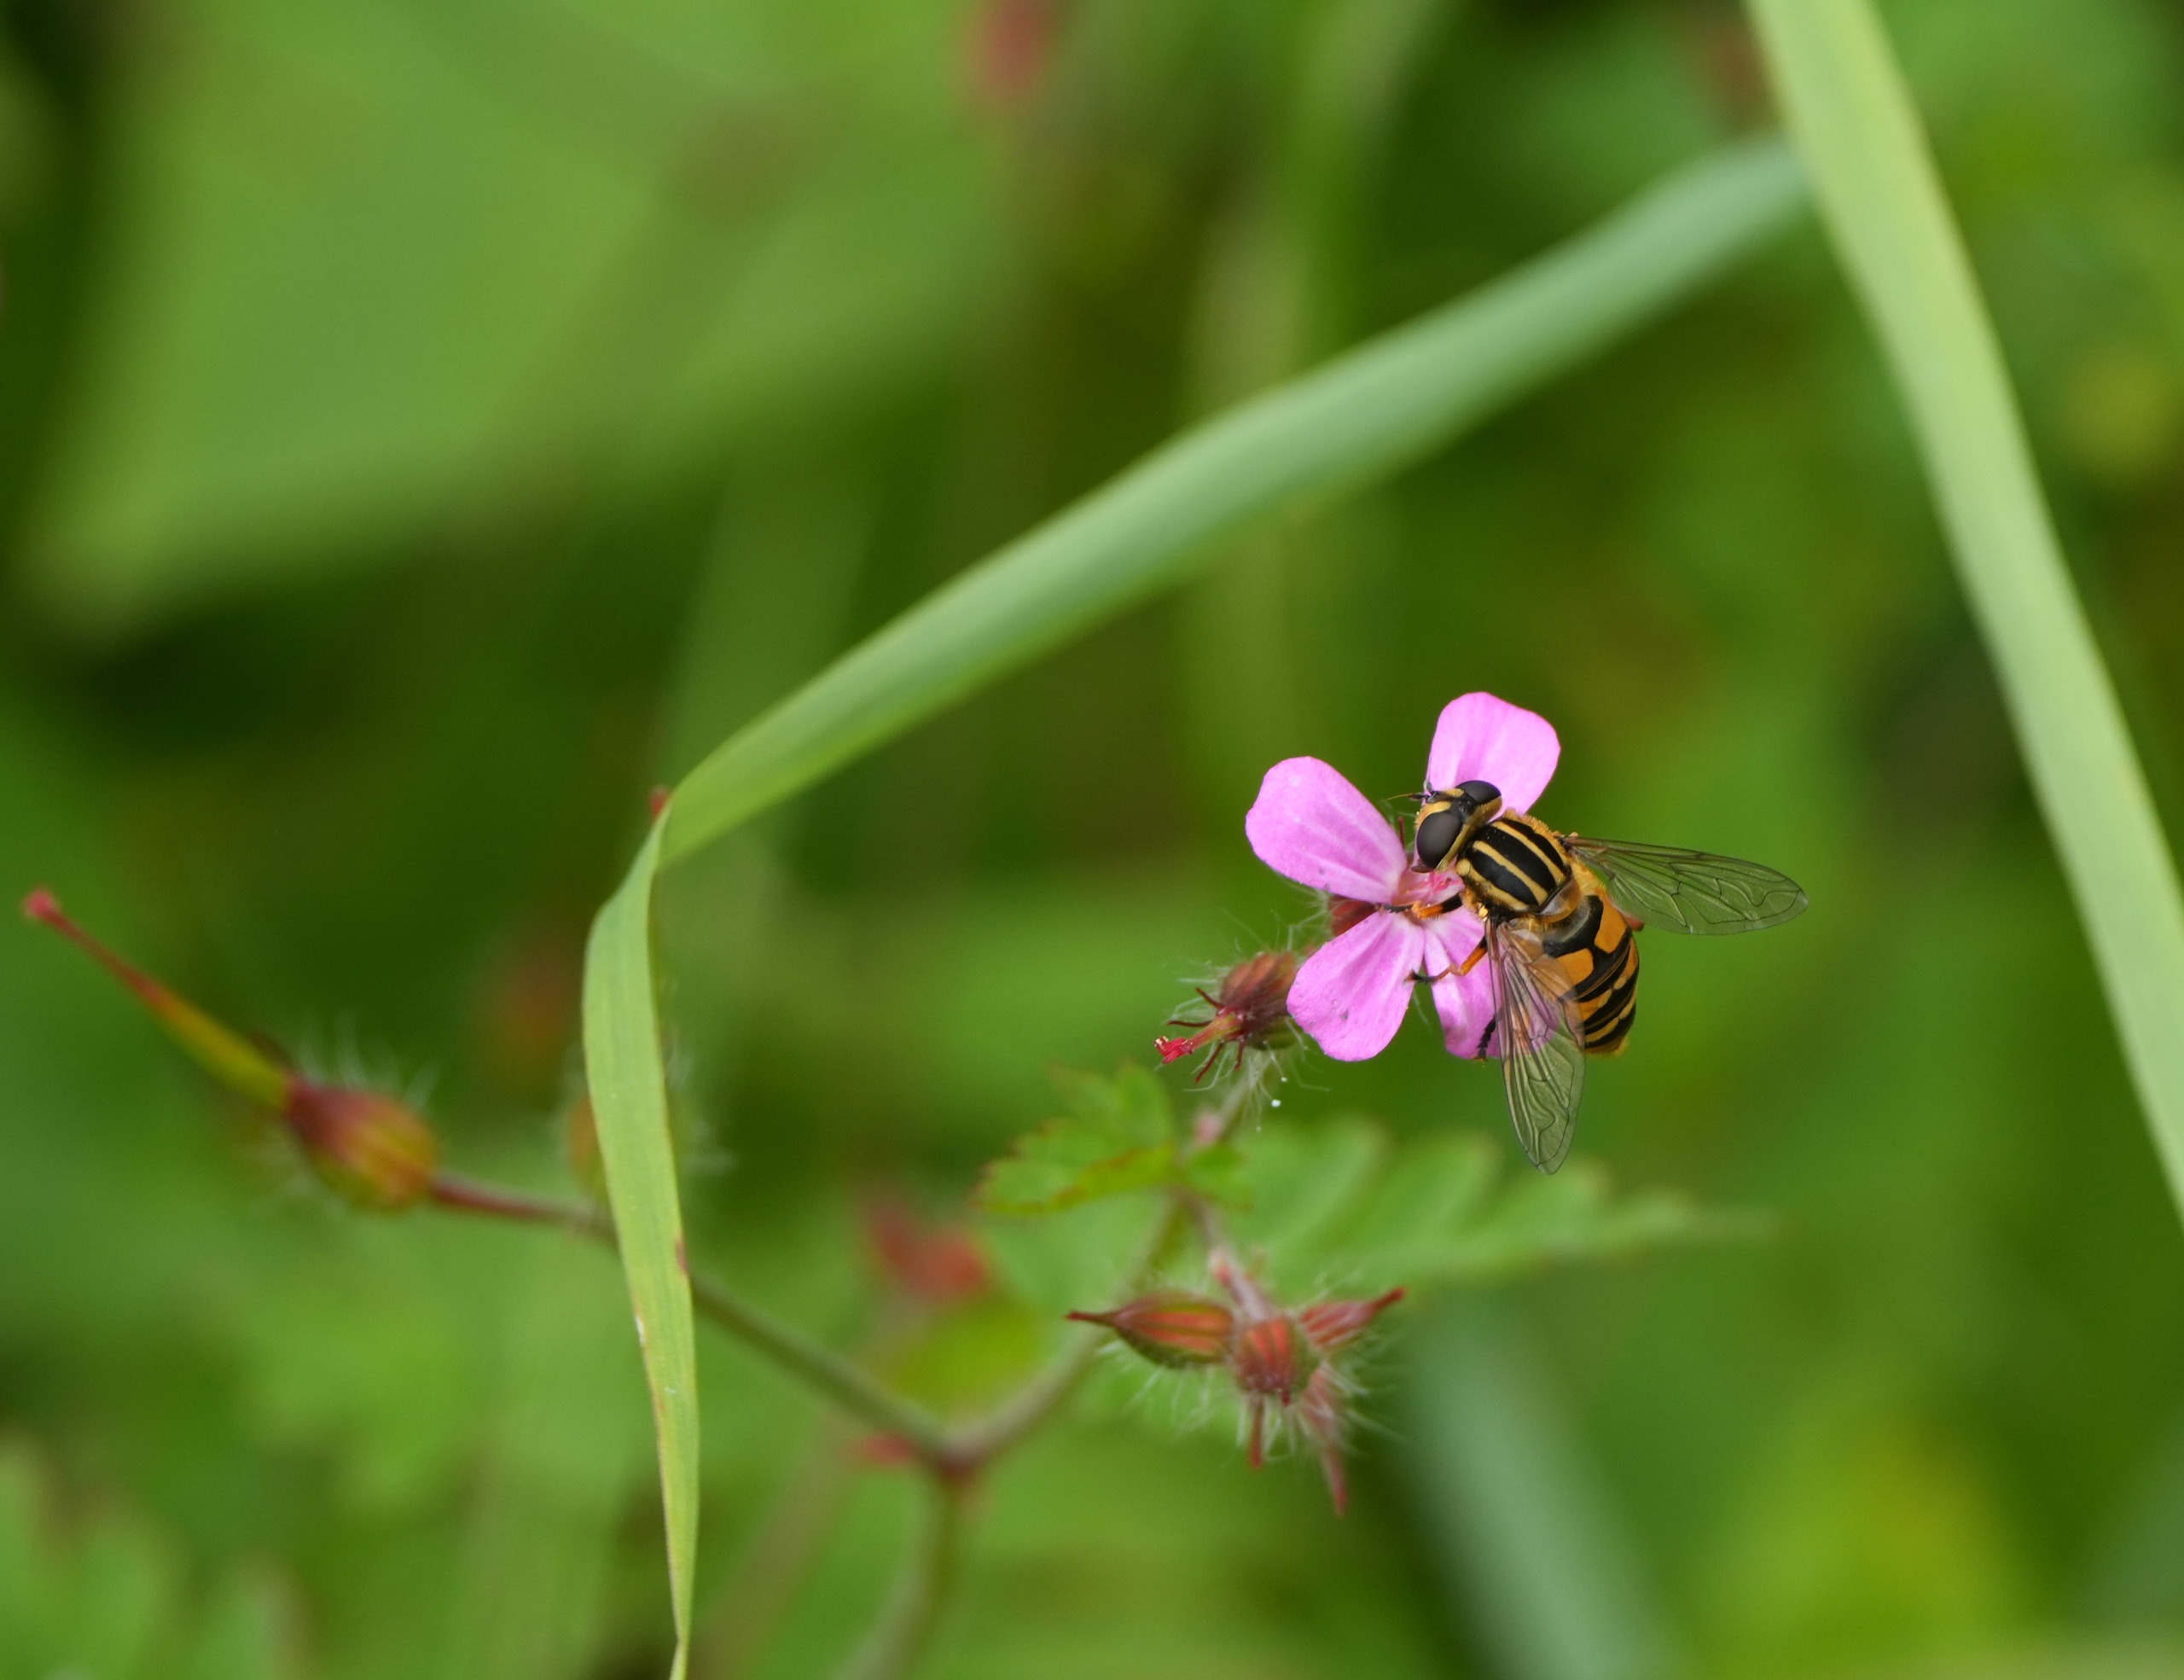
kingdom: Plantae
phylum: Tracheophyta
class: Magnoliopsida
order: Geraniales
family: Geraniaceae
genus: Geranium
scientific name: Geranium robertianum
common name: Stinkende storkenæb
